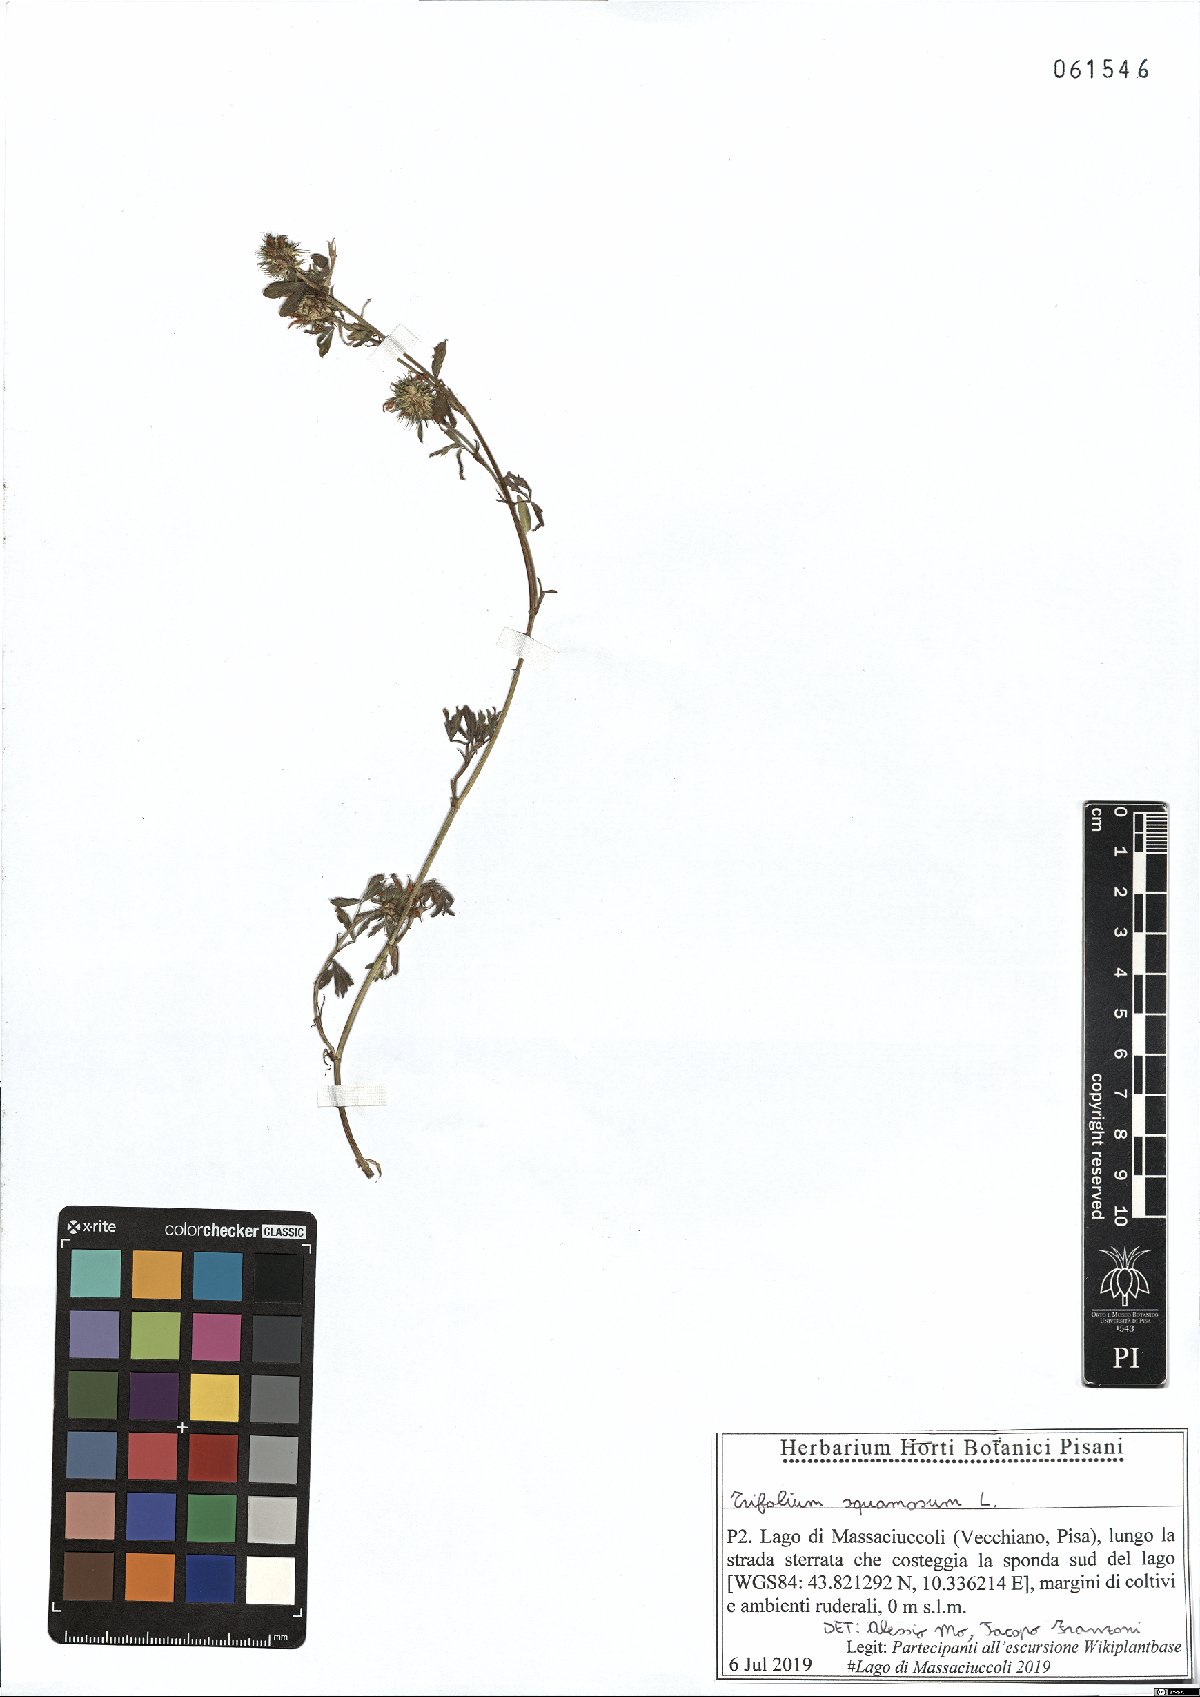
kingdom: Plantae
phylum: Tracheophyta
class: Magnoliopsida
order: Fabales
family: Fabaceae
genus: Trifolium
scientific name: Trifolium squamosum
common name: Sea clover
